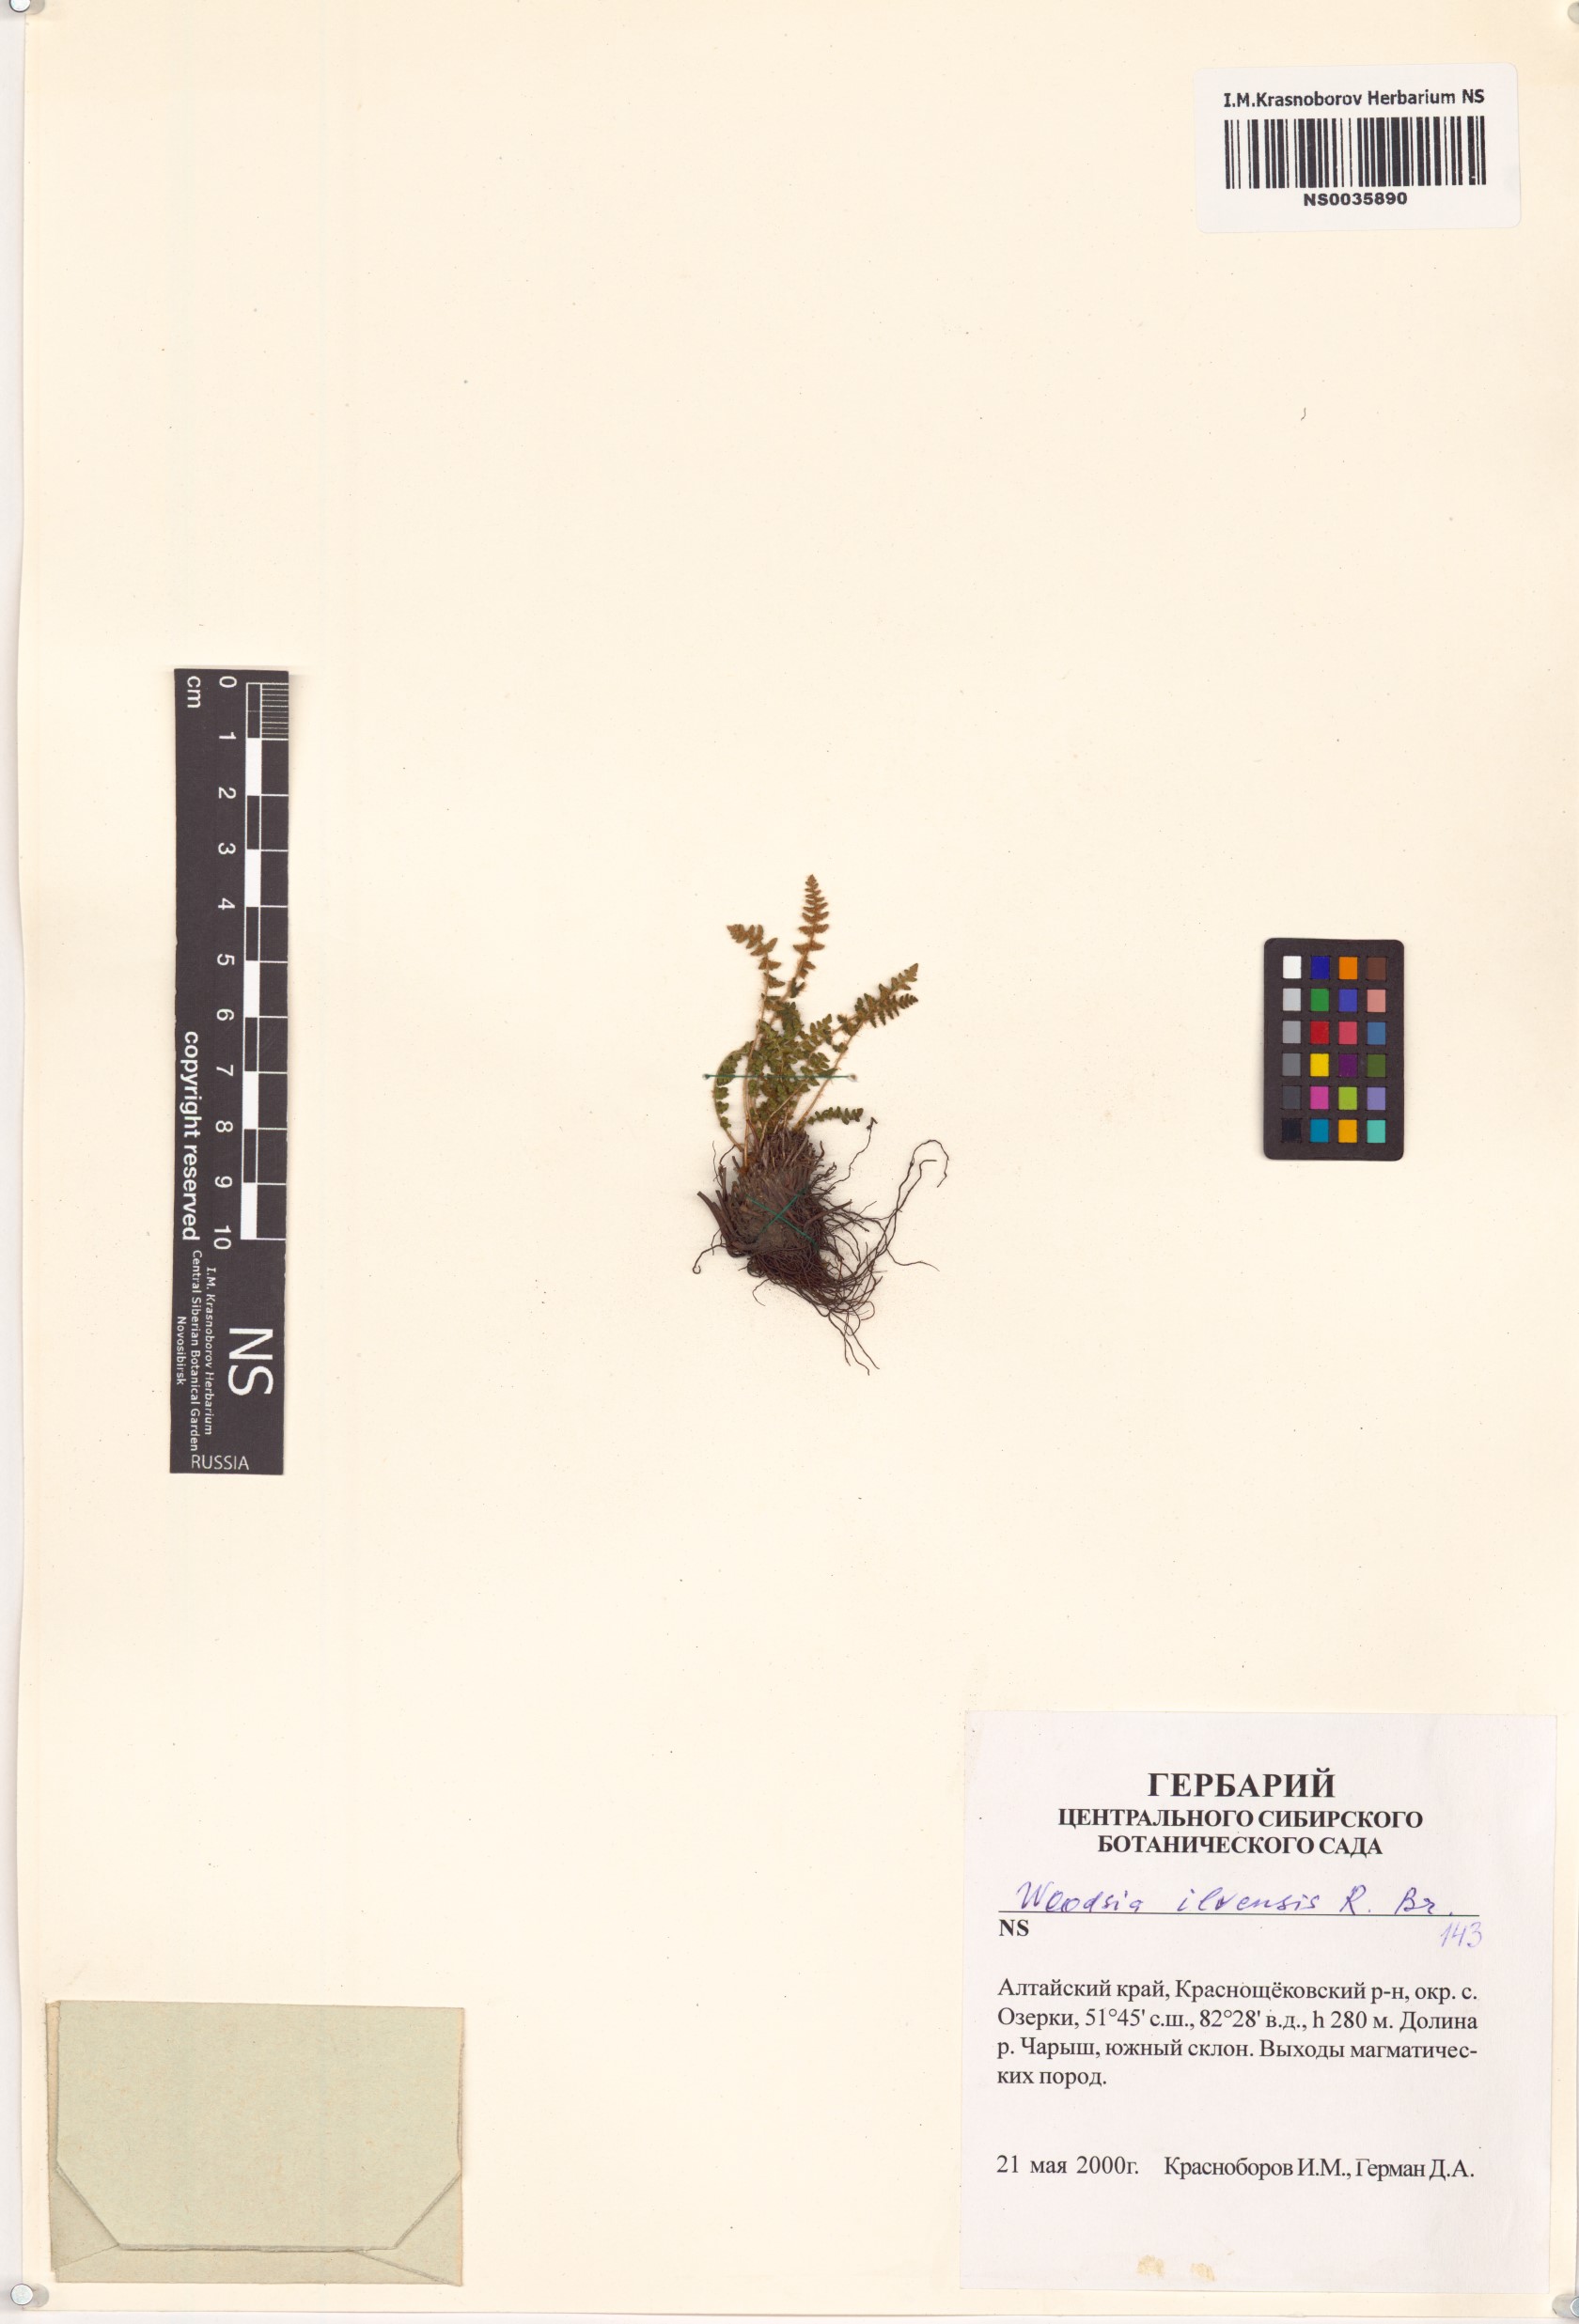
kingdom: Plantae
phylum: Tracheophyta
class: Polypodiopsida
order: Polypodiales
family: Woodsiaceae
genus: Woodsia
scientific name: Woodsia ilvensis
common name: Fragrant woodsia
